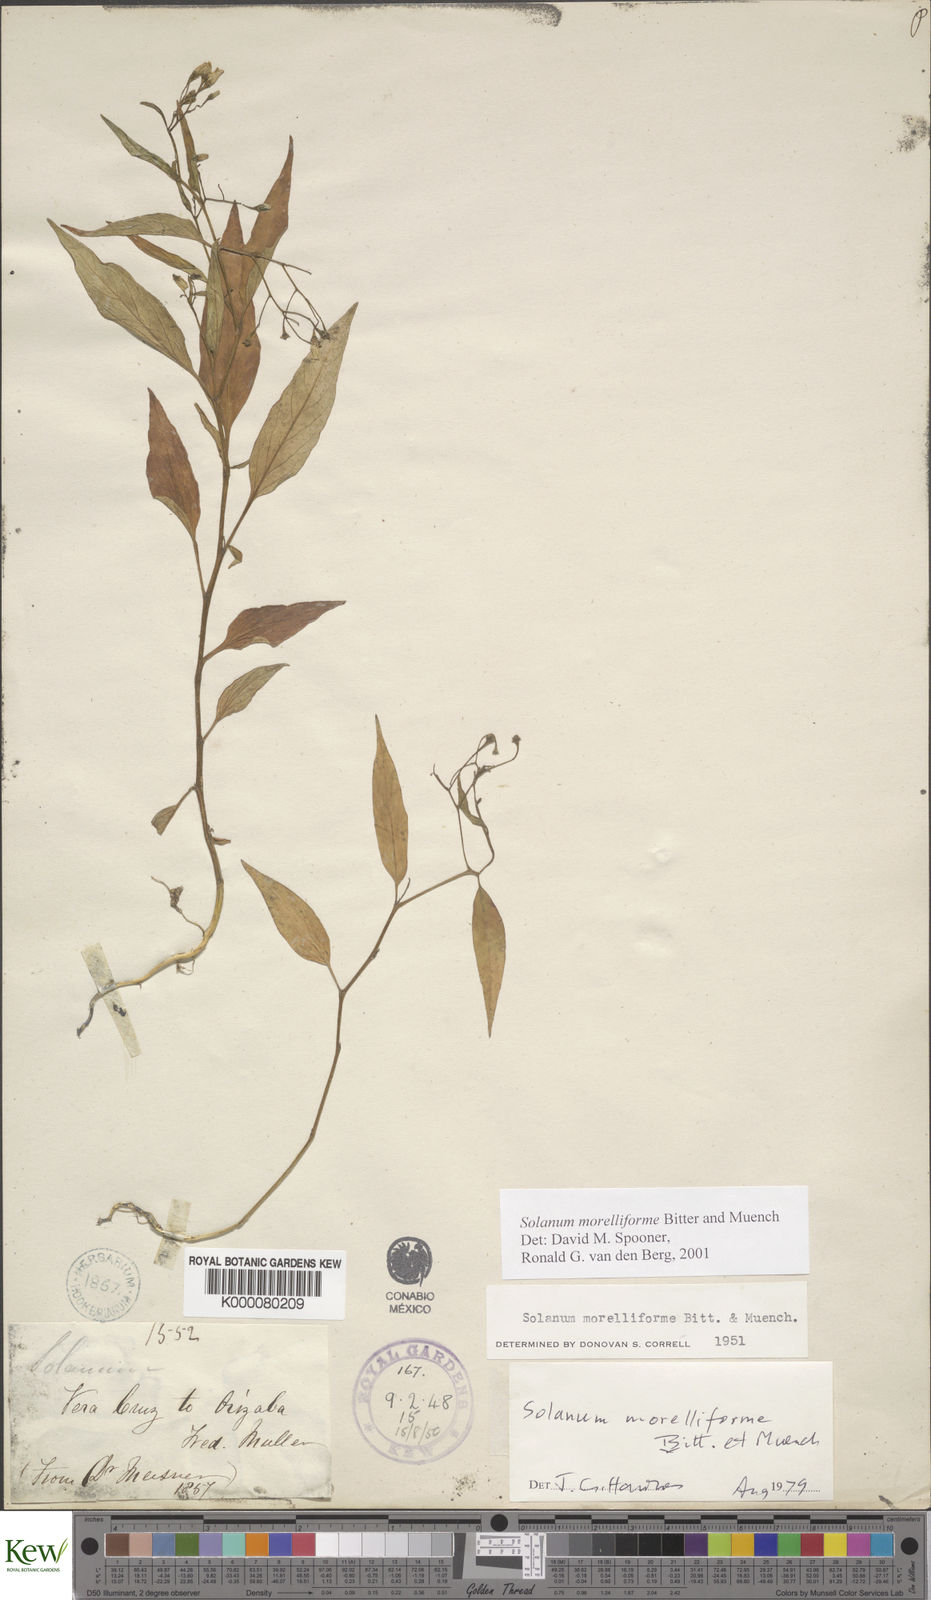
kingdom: Plantae
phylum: Tracheophyta
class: Magnoliopsida
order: Solanales
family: Solanaceae
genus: Solanum
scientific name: Solanum morelliforme
